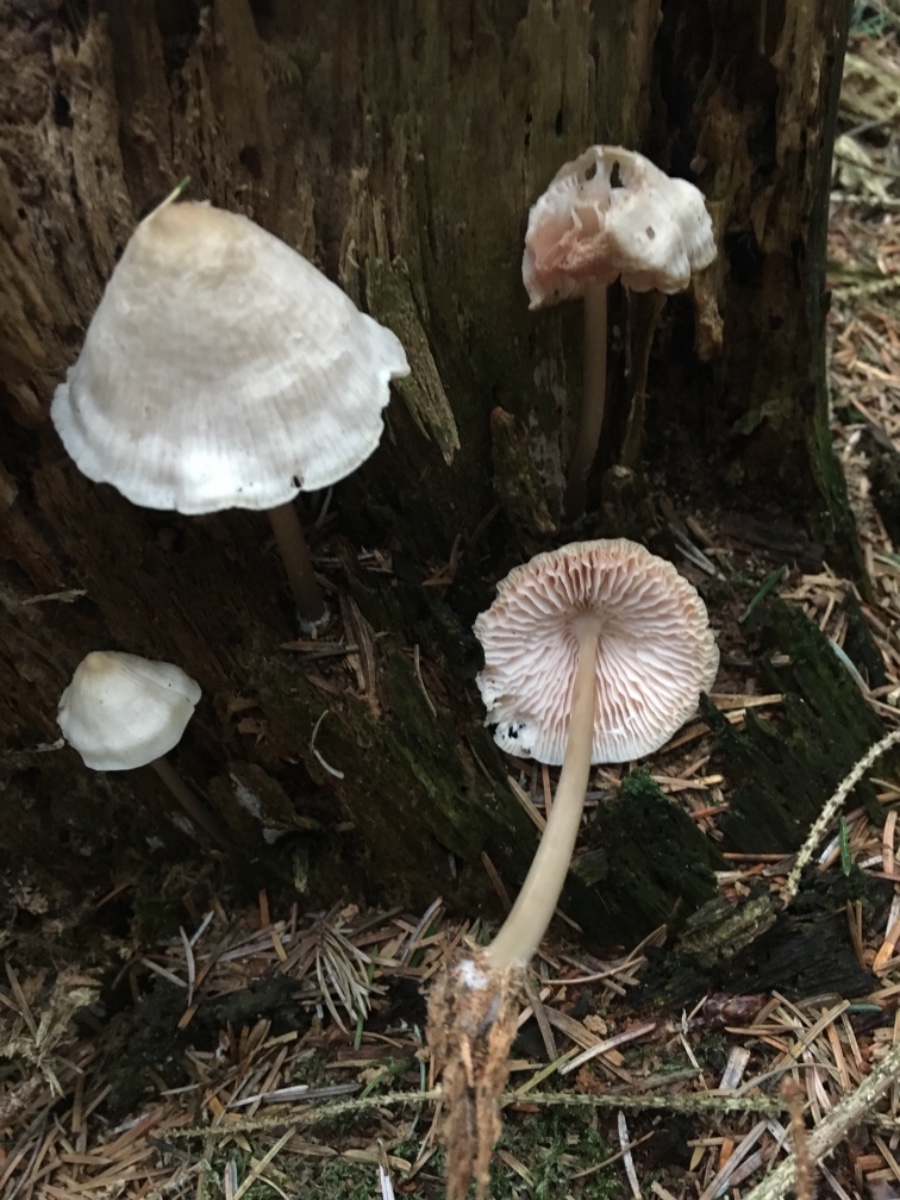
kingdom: Fungi
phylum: Basidiomycota
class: Agaricomycetes
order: Agaricales
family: Mycenaceae
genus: Mycena
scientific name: Mycena galericulata
